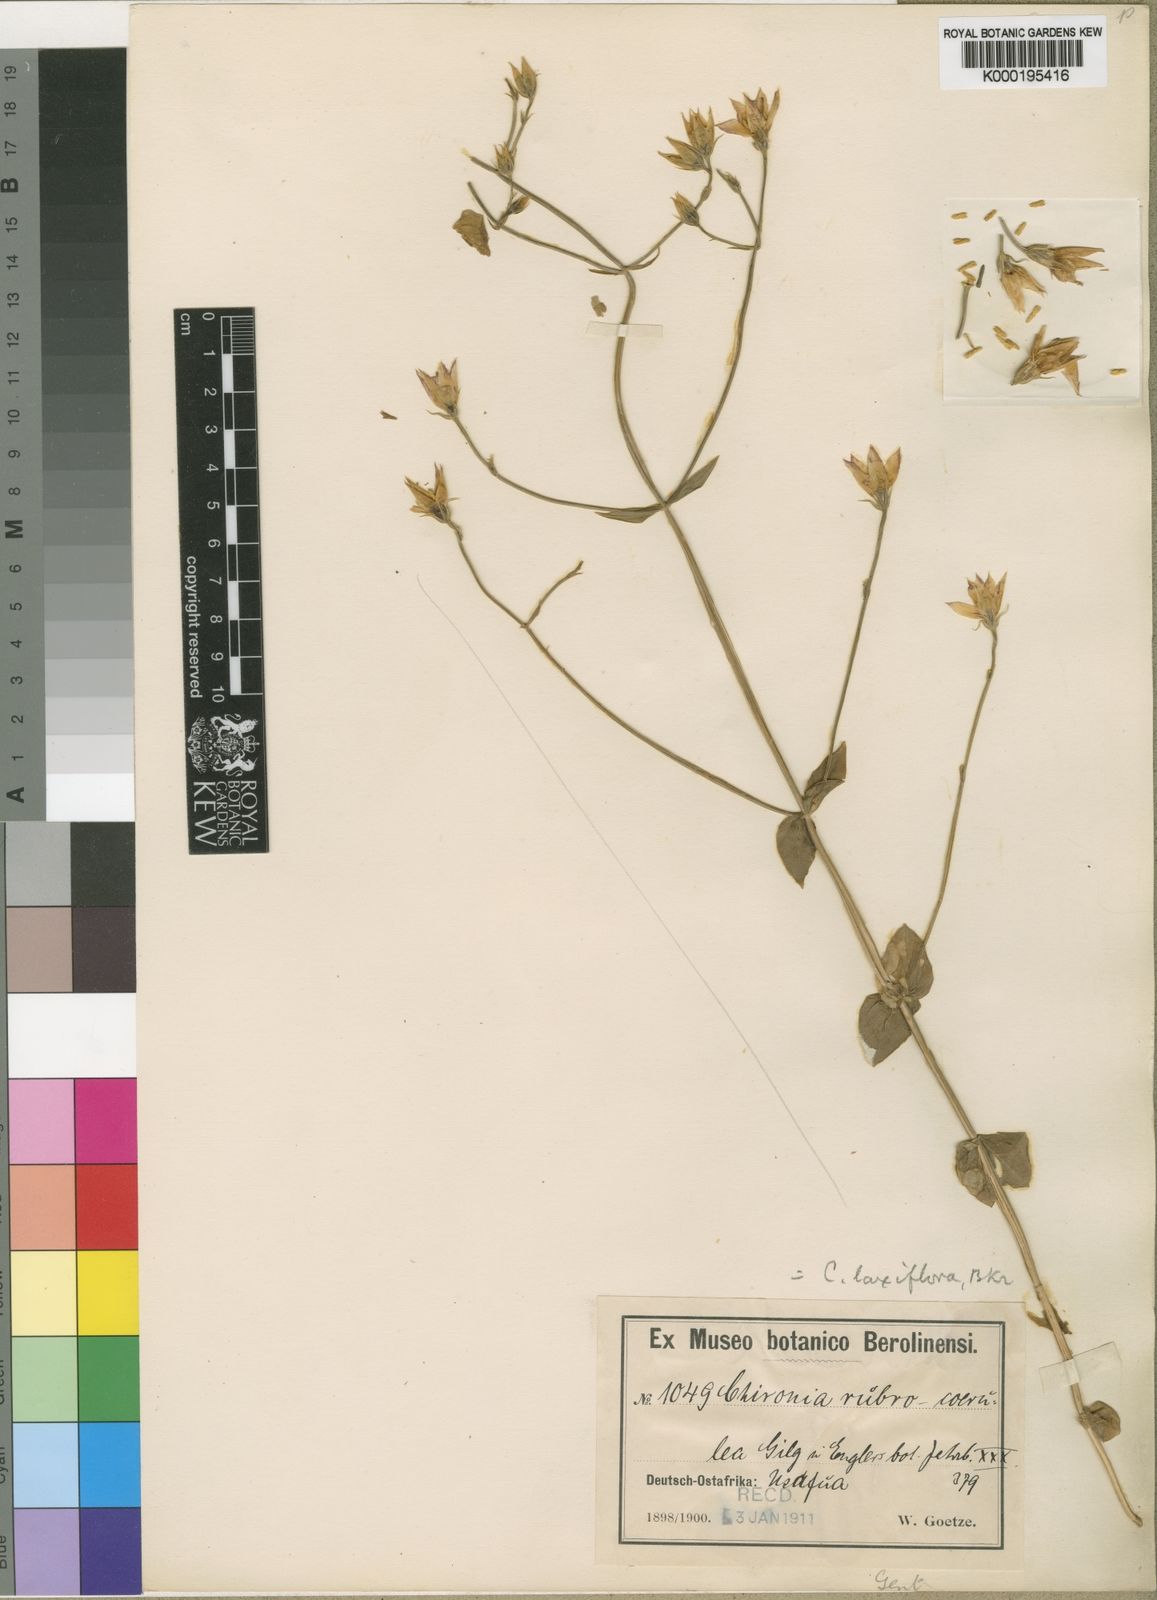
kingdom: Plantae
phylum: Tracheophyta
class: Magnoliopsida
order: Gentianales
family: Gentianaceae
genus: Chironia
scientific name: Chironia laxiflora
